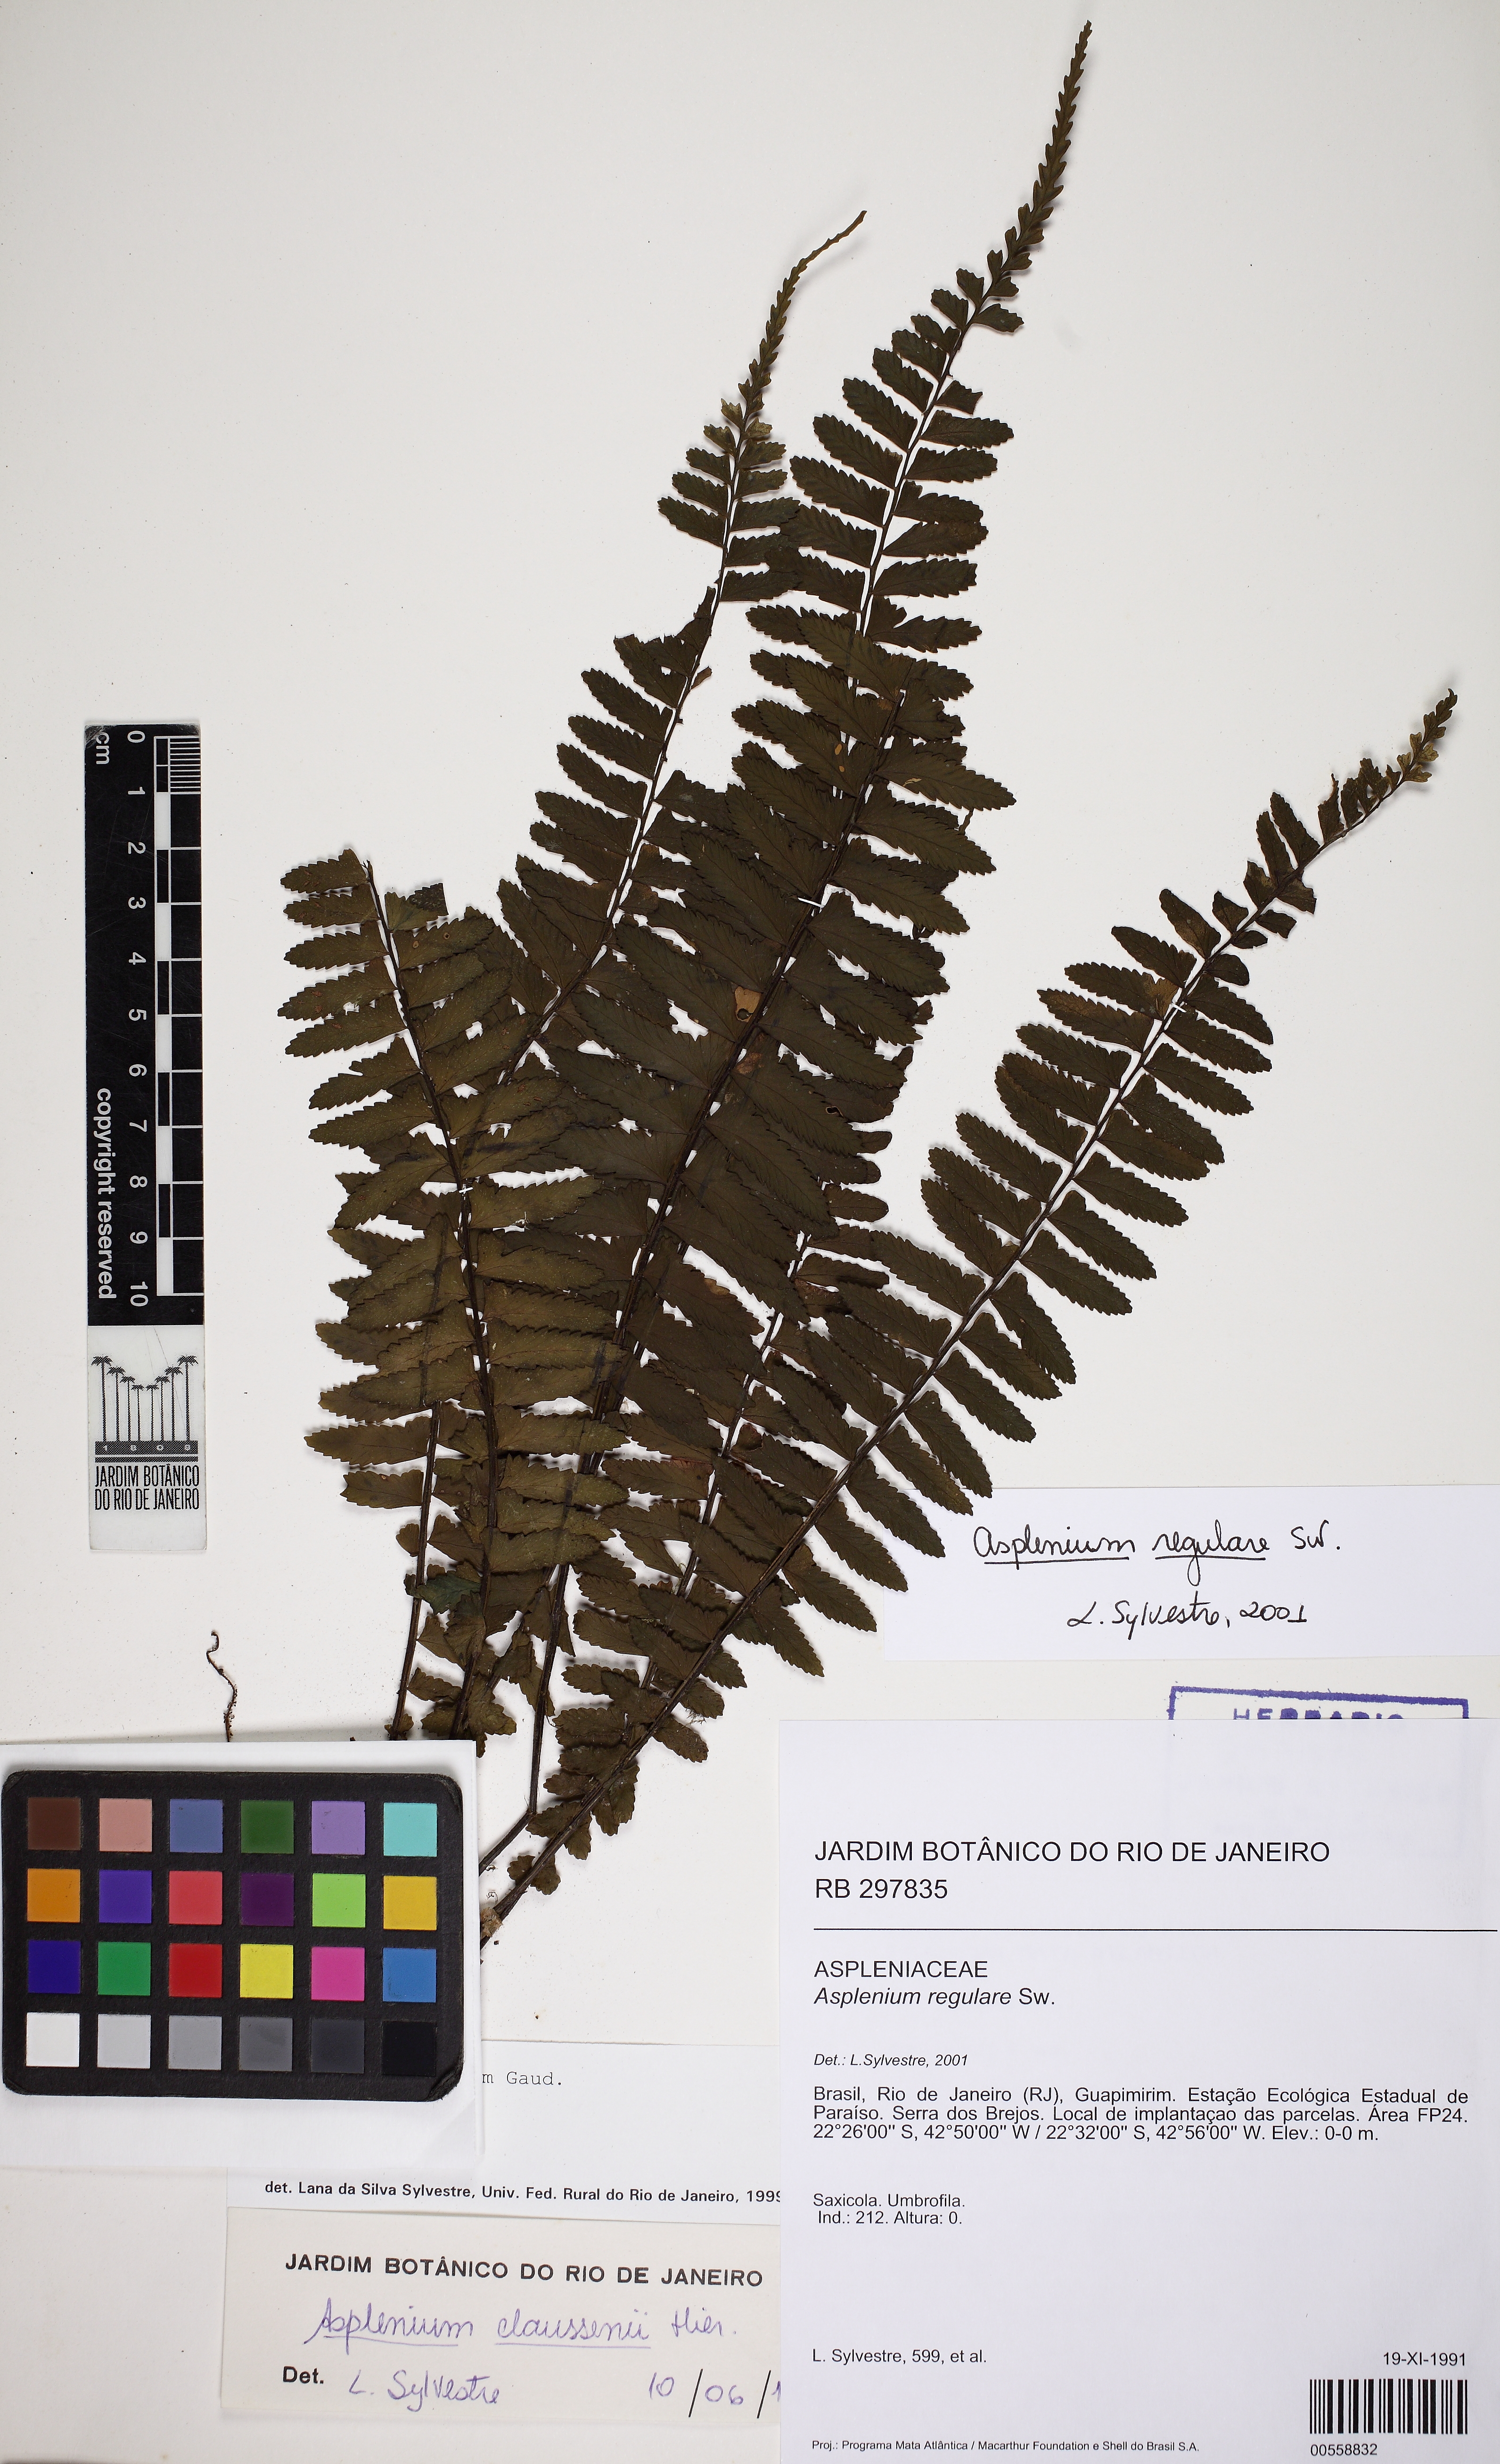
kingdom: Plantae
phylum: Tracheophyta
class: Polypodiopsida
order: Polypodiales
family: Aspleniaceae
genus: Asplenium
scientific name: Asplenium regulare
